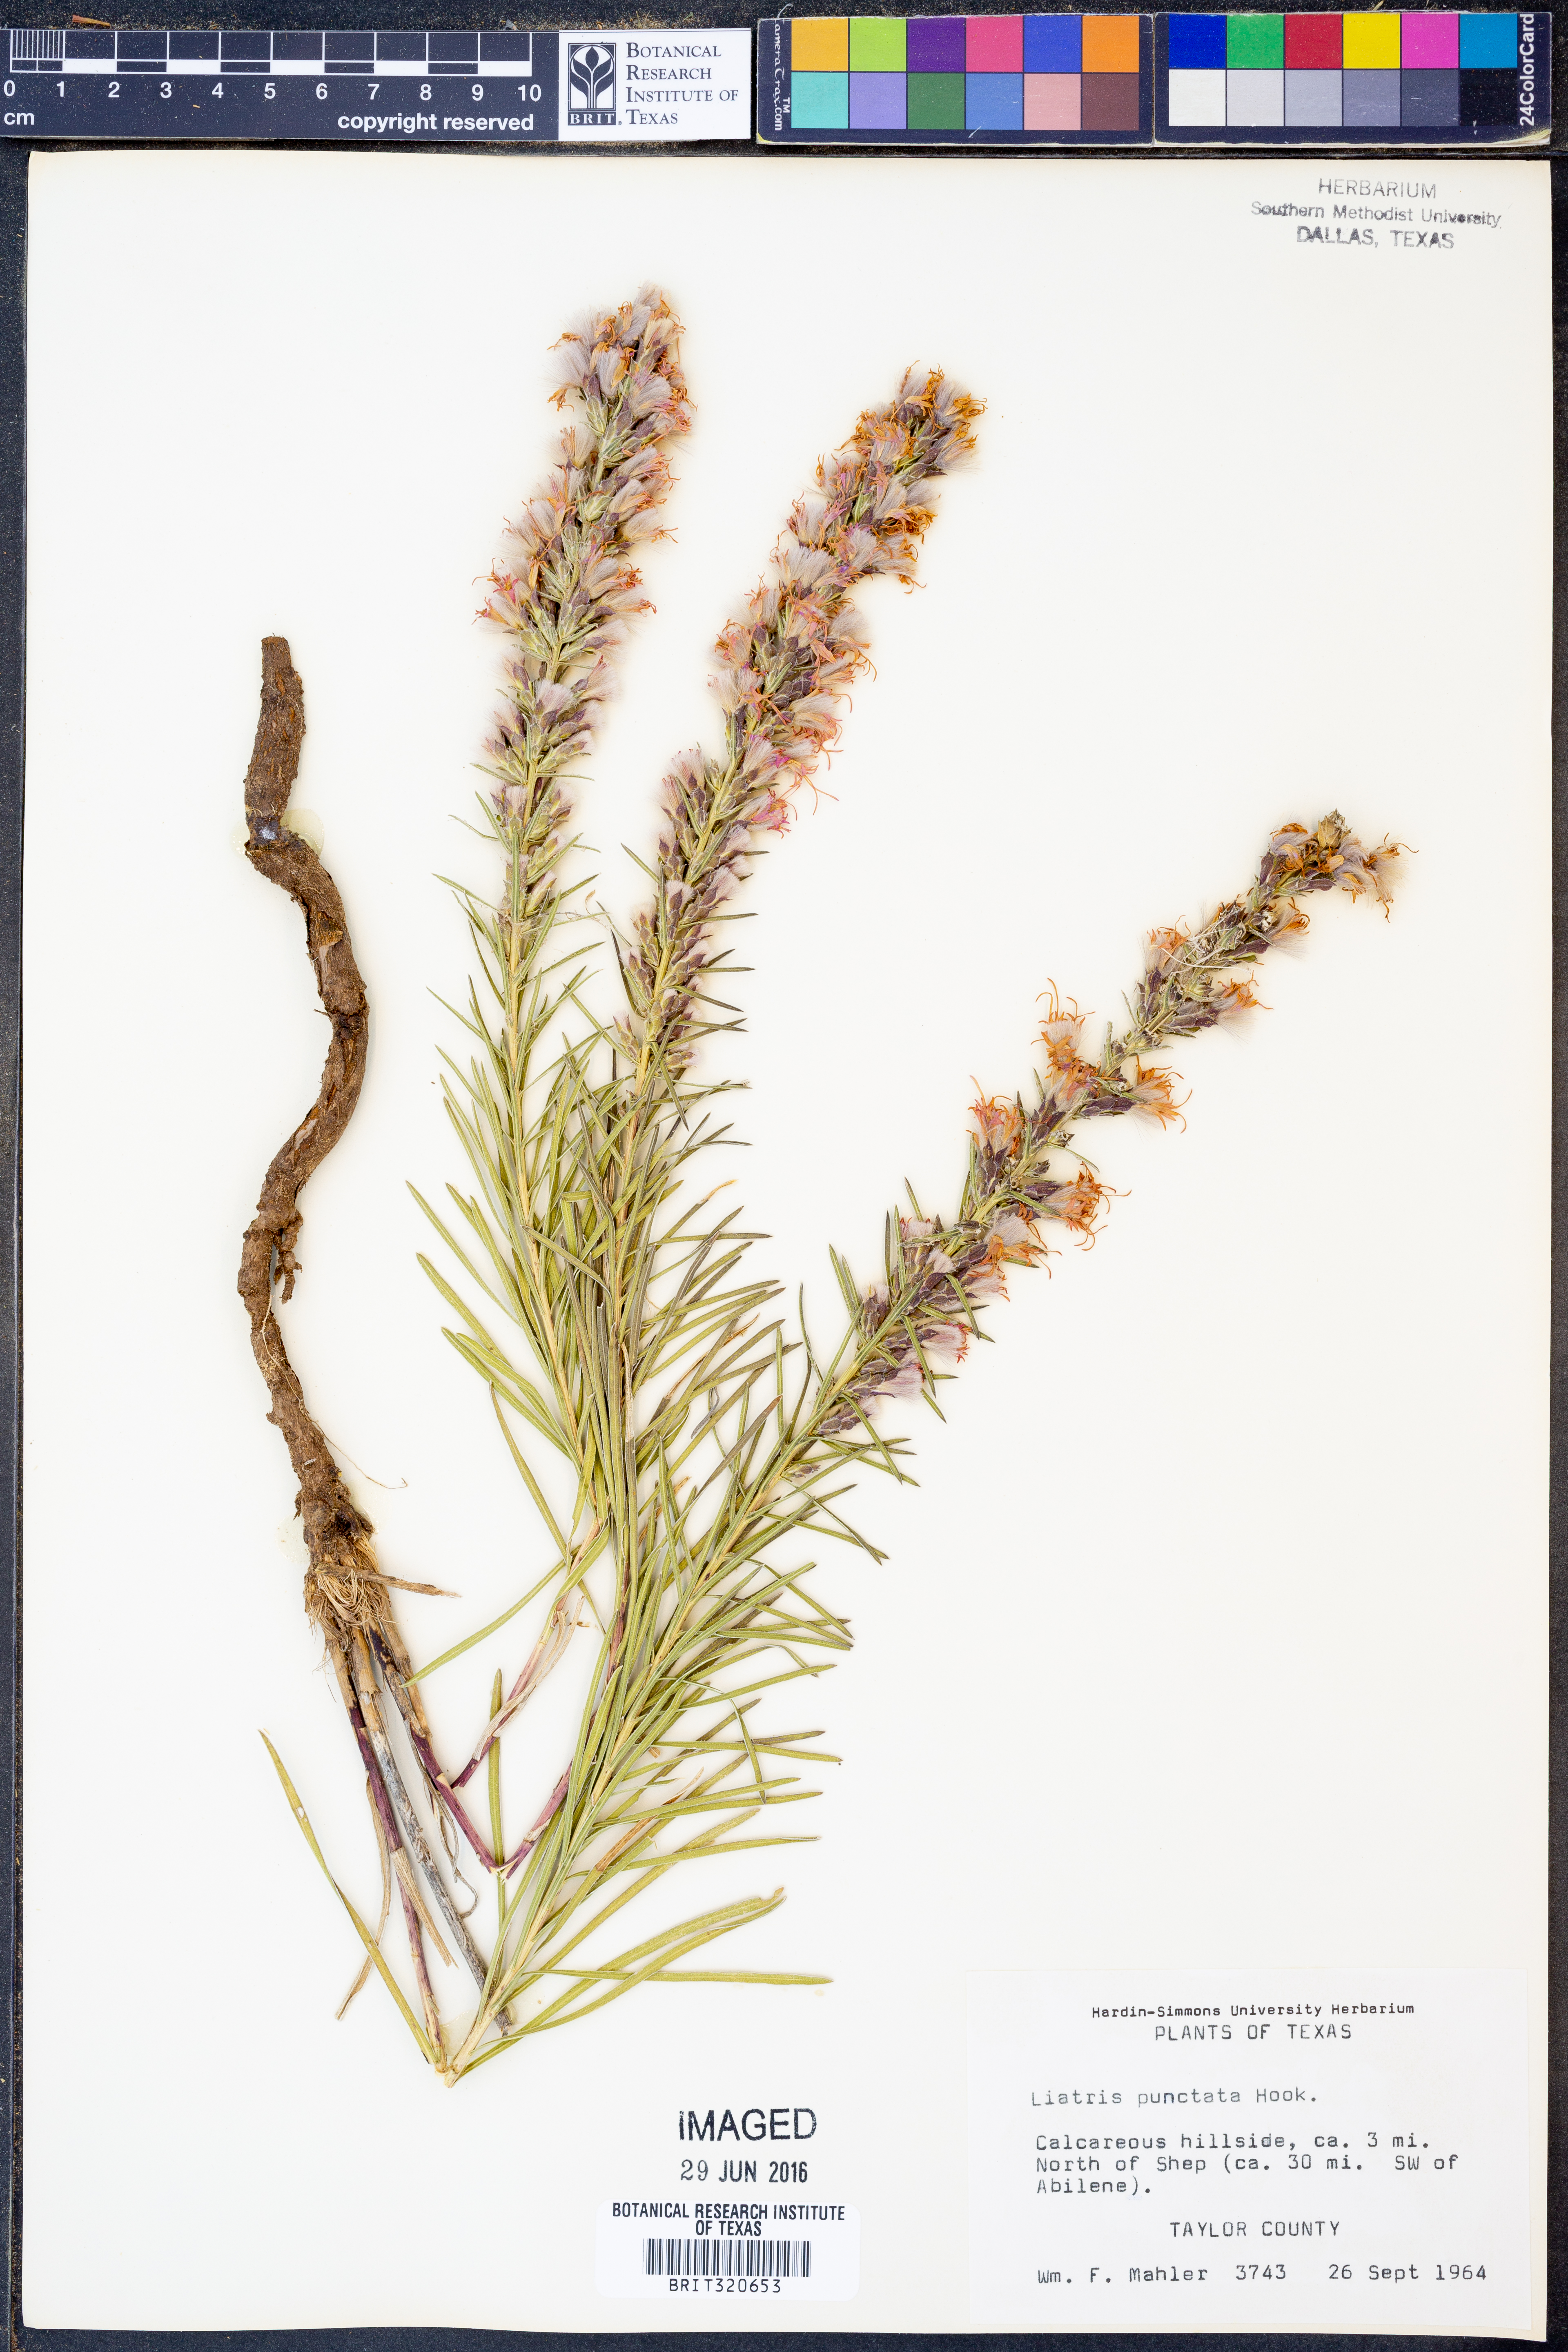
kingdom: Plantae
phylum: Tracheophyta
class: Magnoliopsida
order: Asterales
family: Asteraceae
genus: Liatris
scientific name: Liatris punctata
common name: Dotted gayfeather
